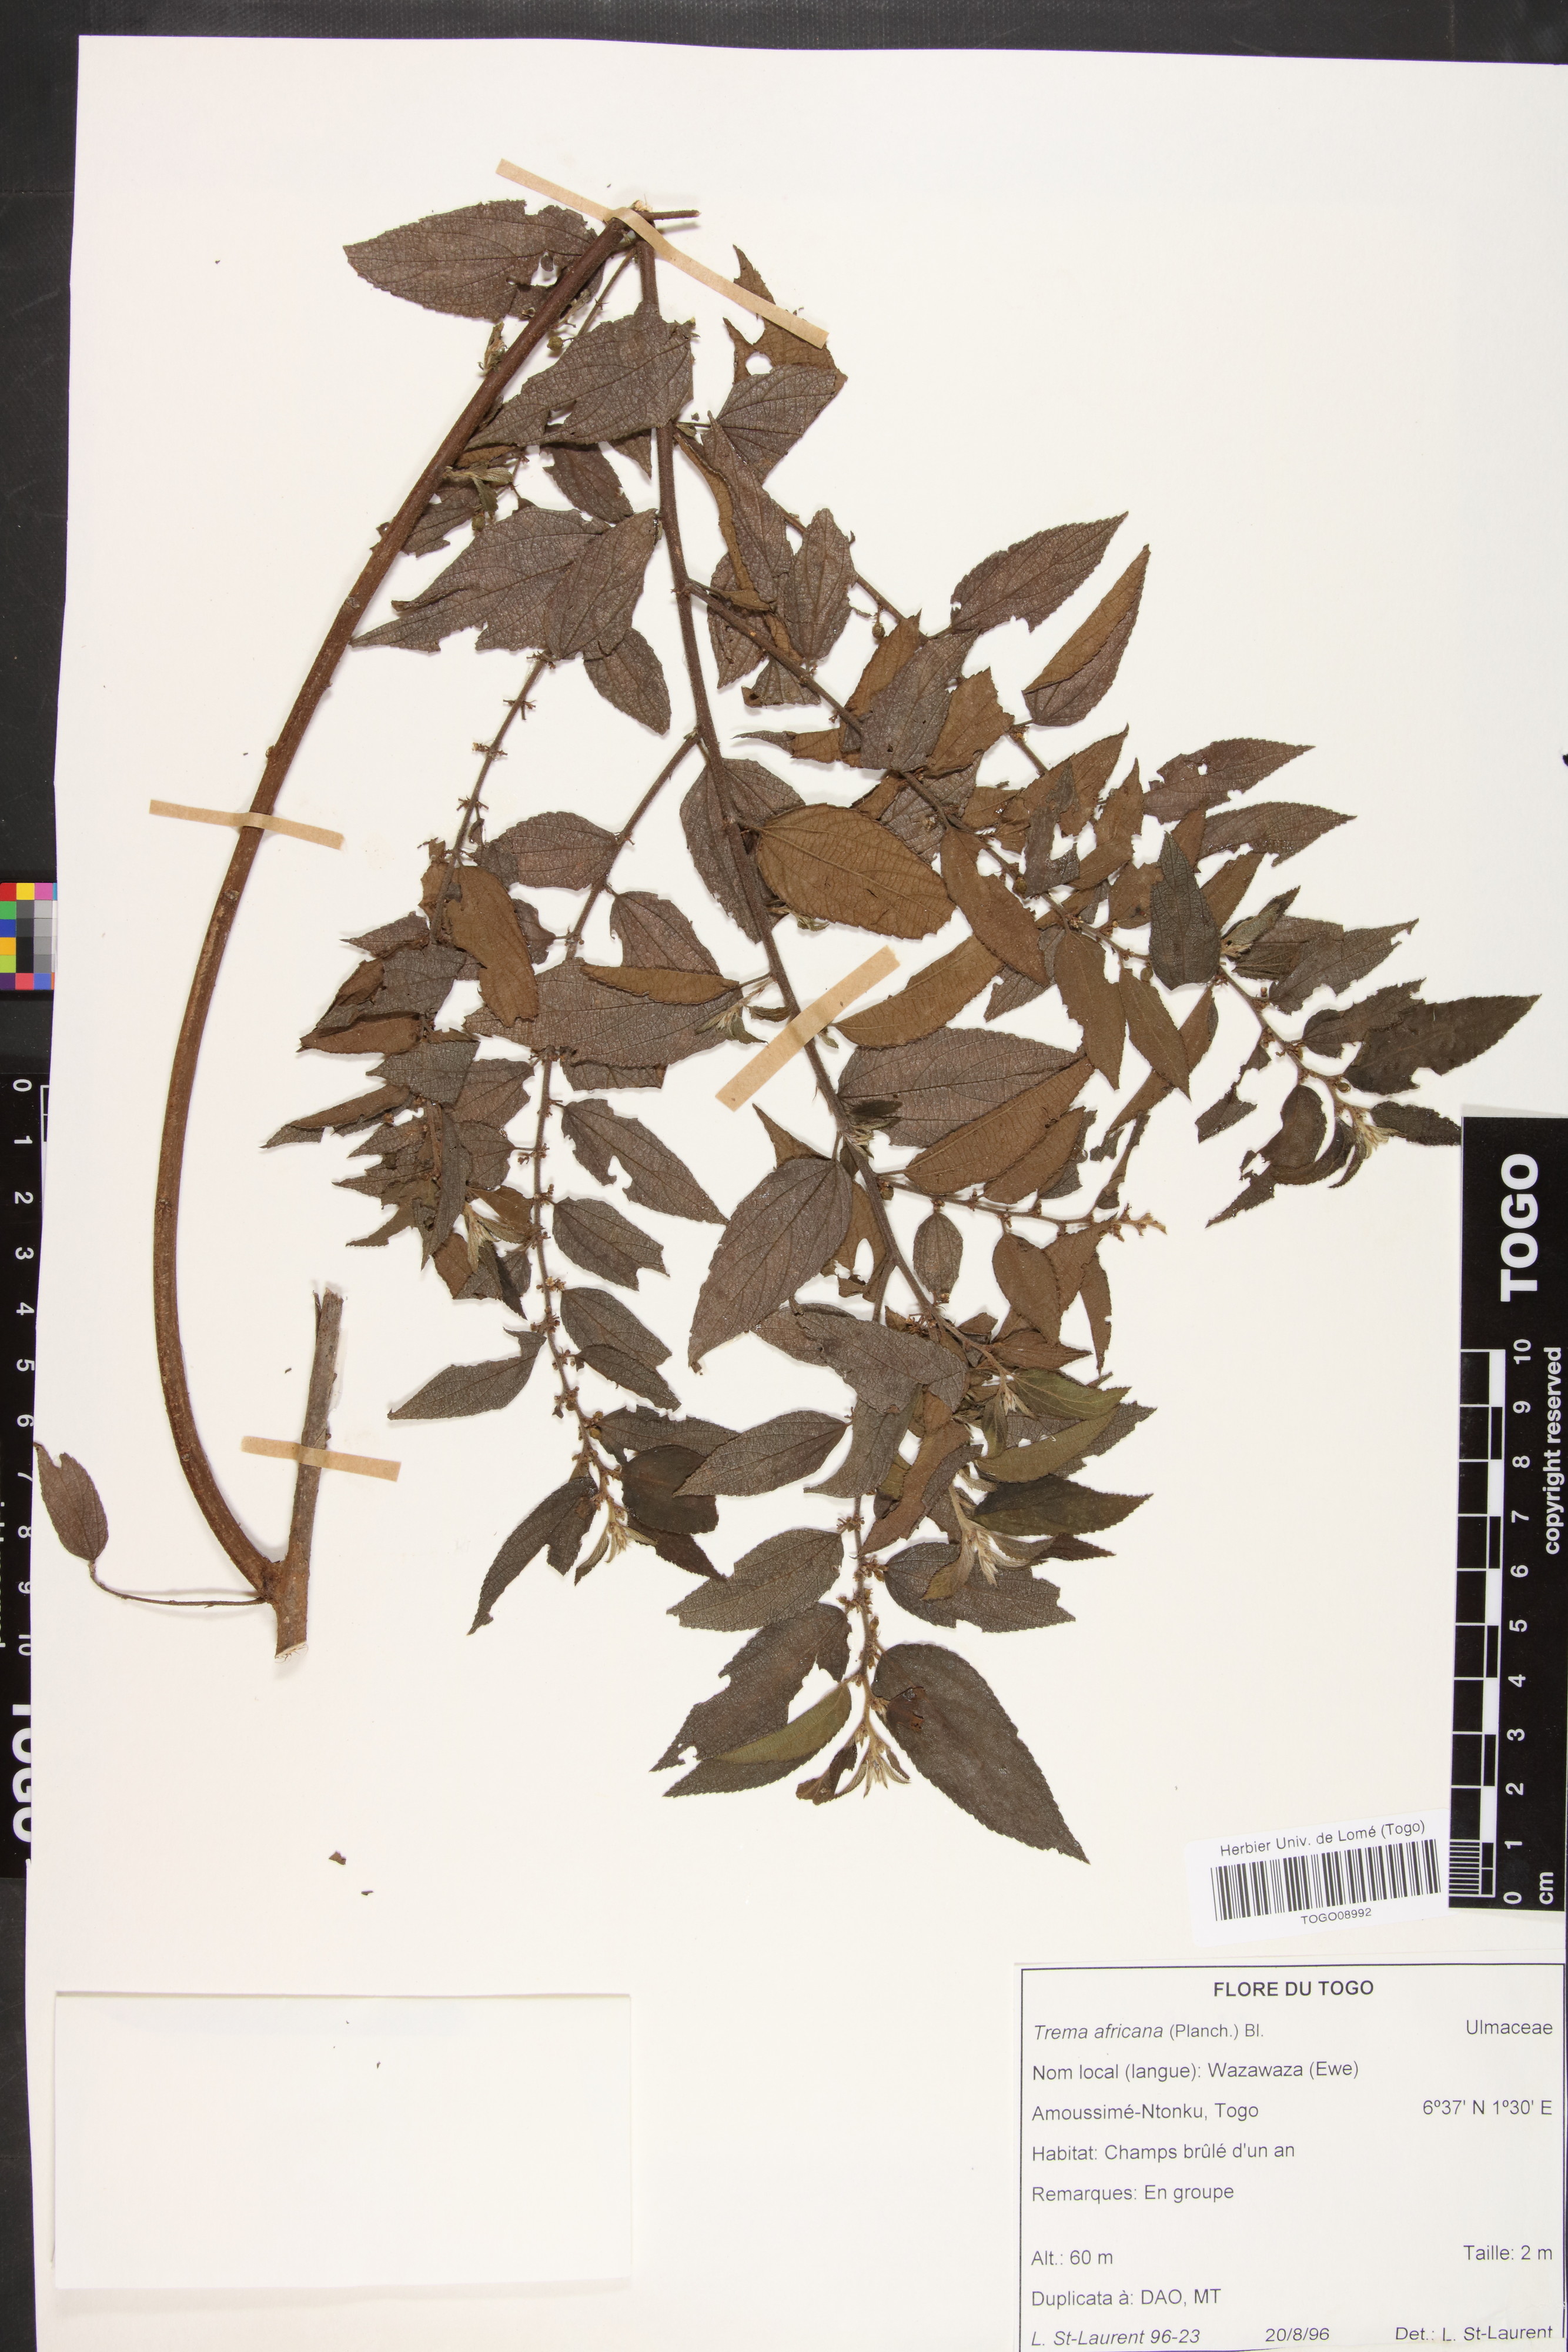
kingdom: Plantae
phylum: Tracheophyta
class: Magnoliopsida
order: Rosales
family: Cannabaceae
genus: Trema
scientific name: Trema orientale
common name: Indian charcoal tree
